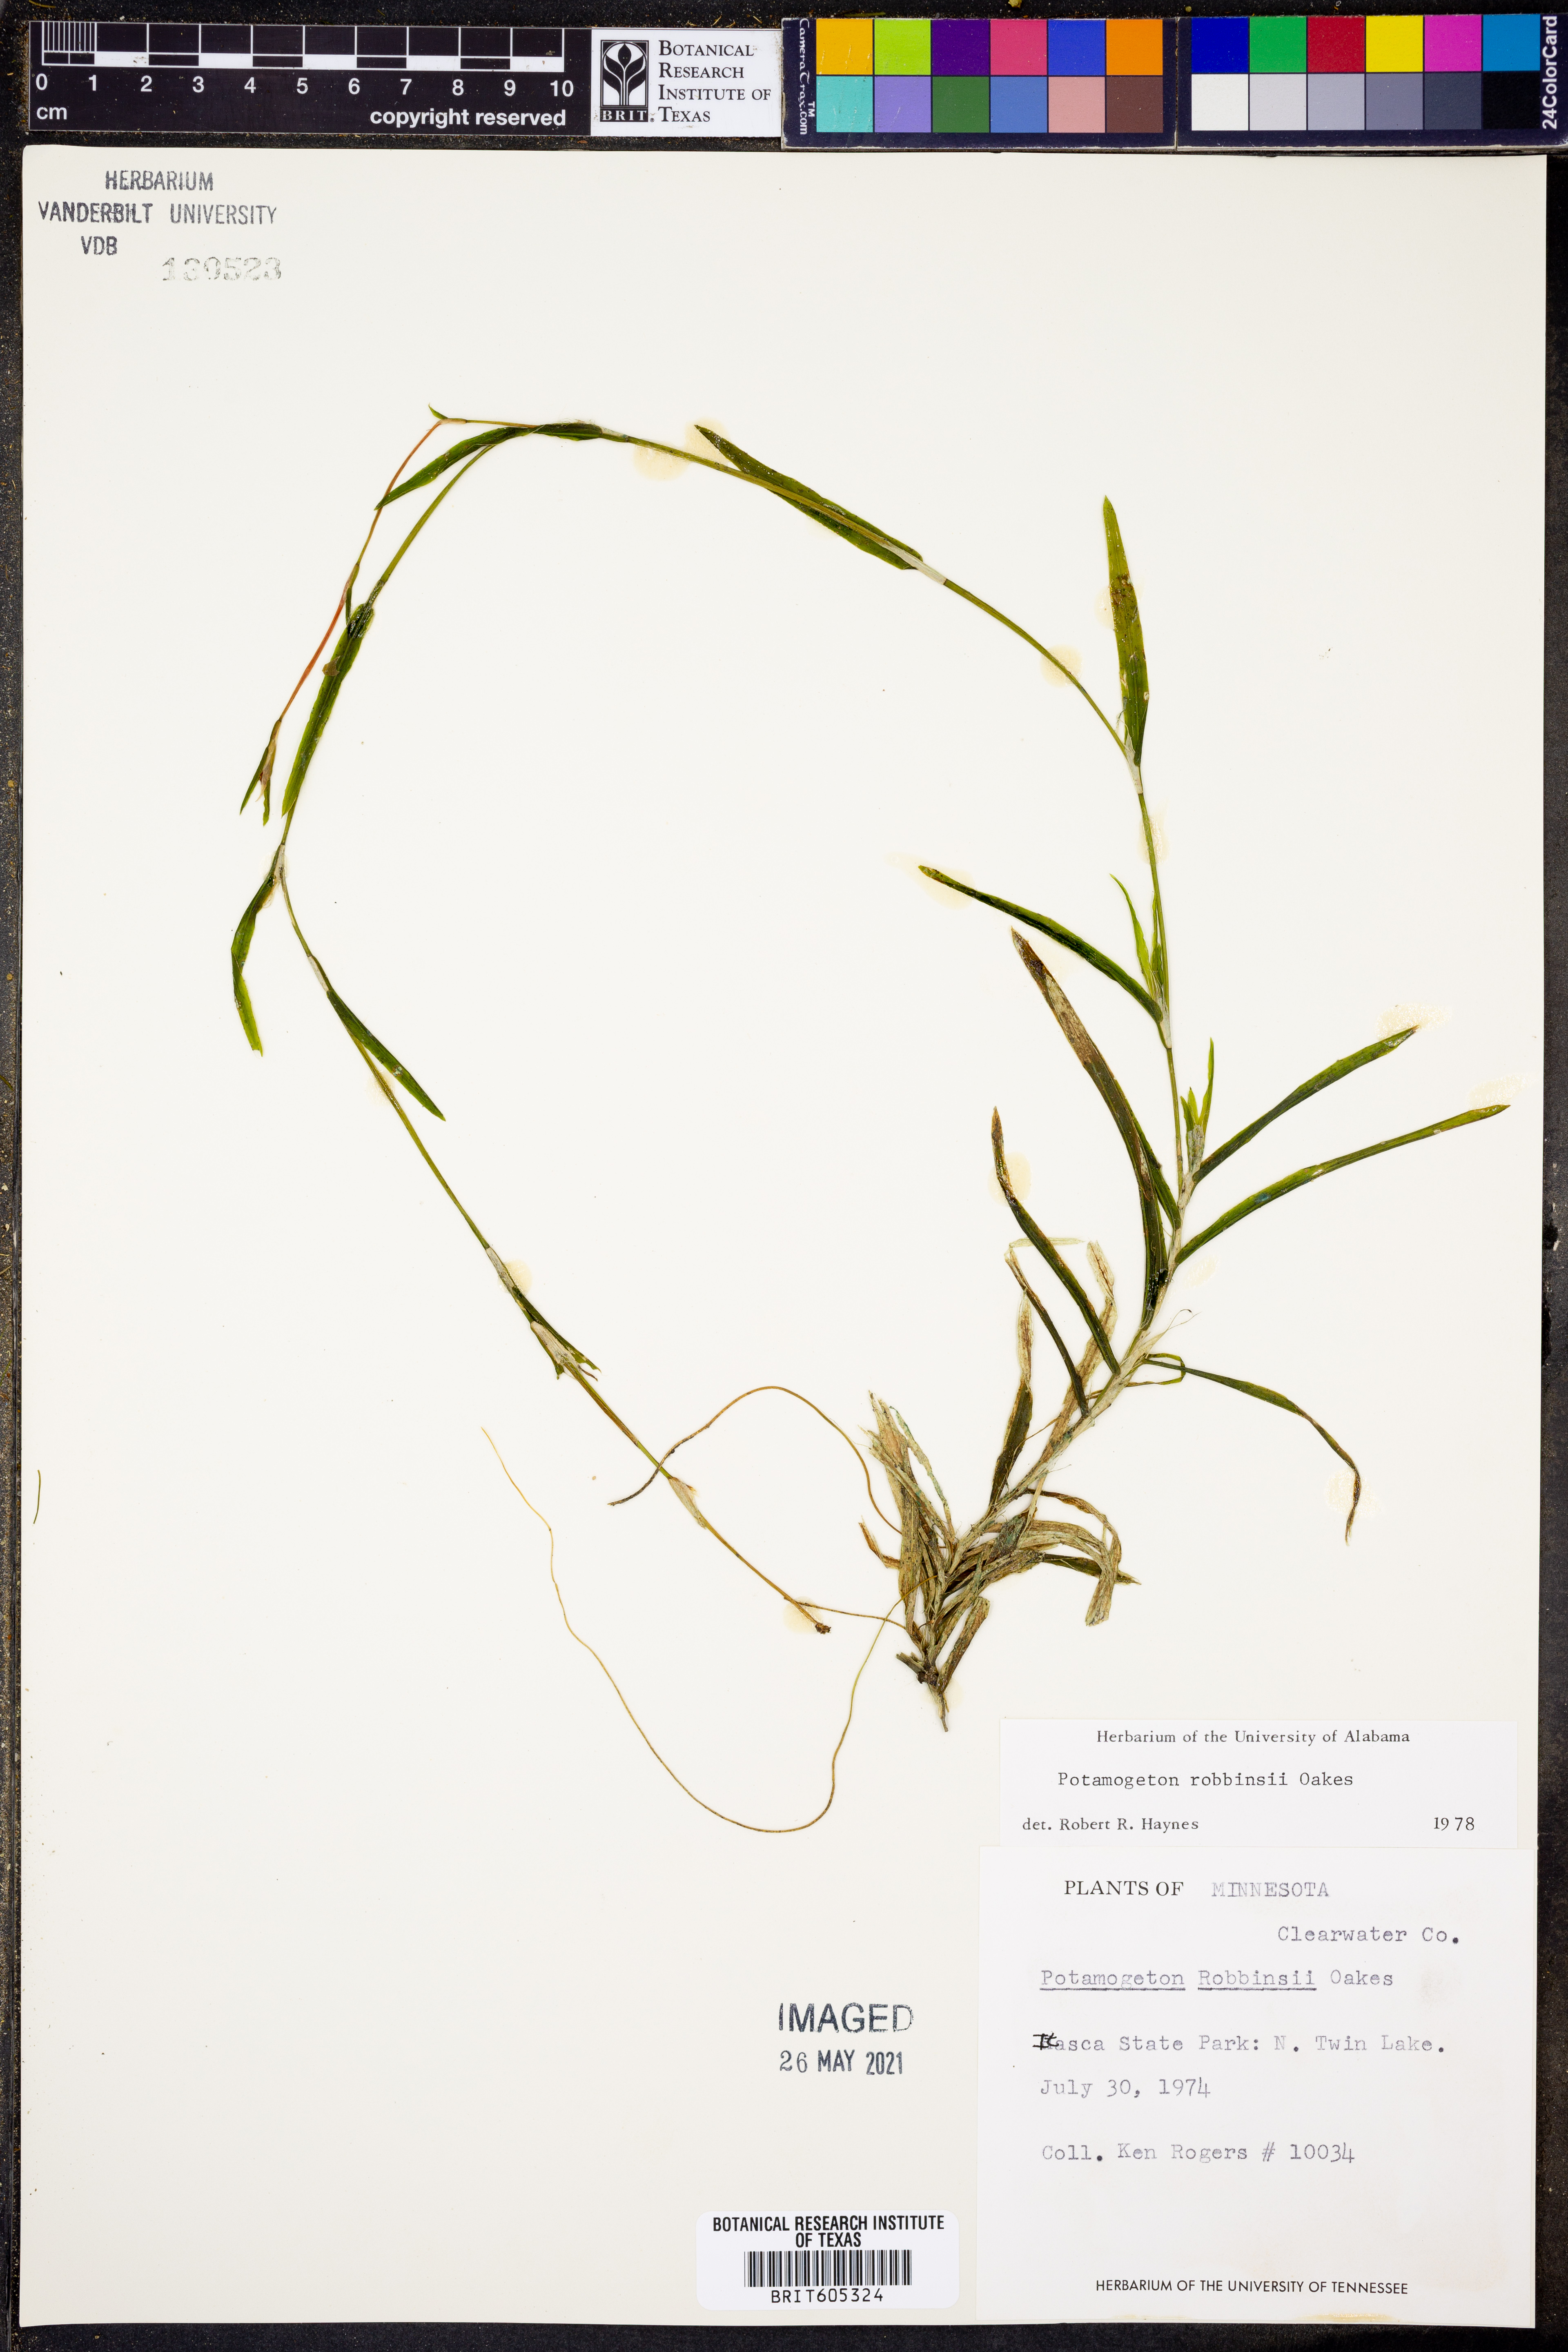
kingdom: Plantae
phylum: Tracheophyta
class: Liliopsida
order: Alismatales
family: Potamogetonaceae
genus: Potamogeton
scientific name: Potamogeton robbinsii
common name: Fern pondweed
